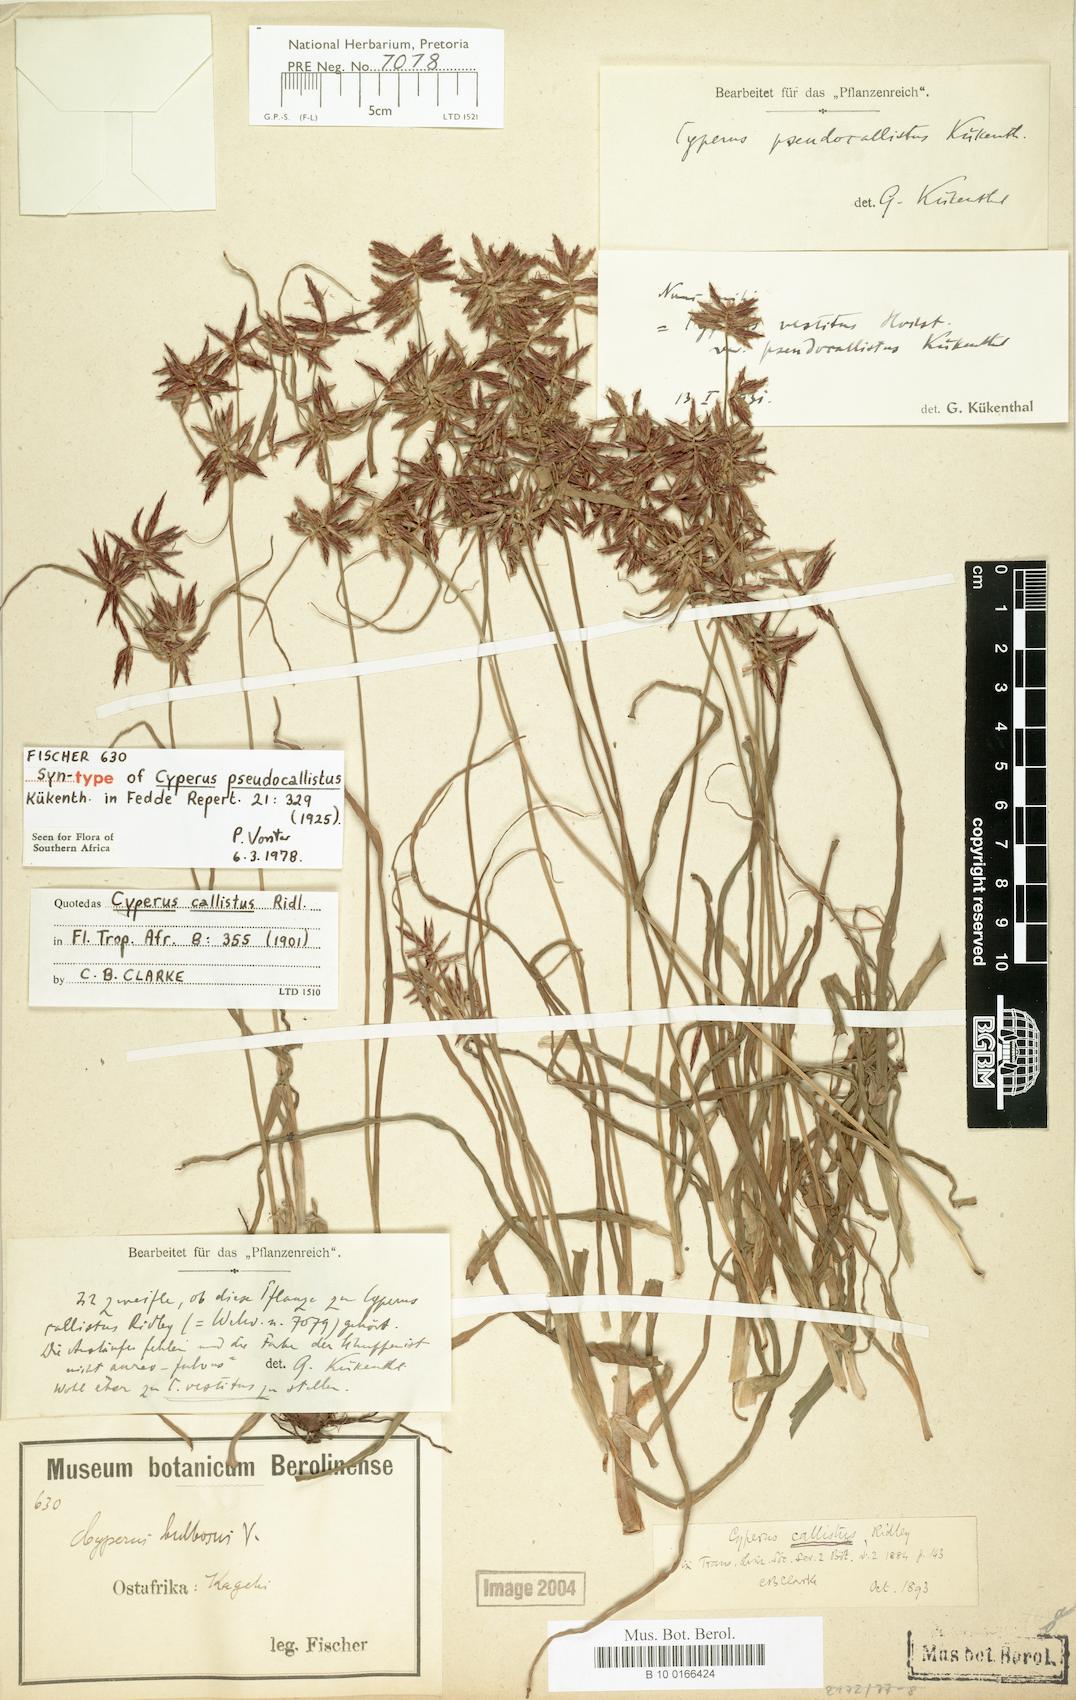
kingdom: Plantae
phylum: Tracheophyta
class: Liliopsida
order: Poales
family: Cyperaceae
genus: Cyperus
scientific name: Cyperus vestitus
